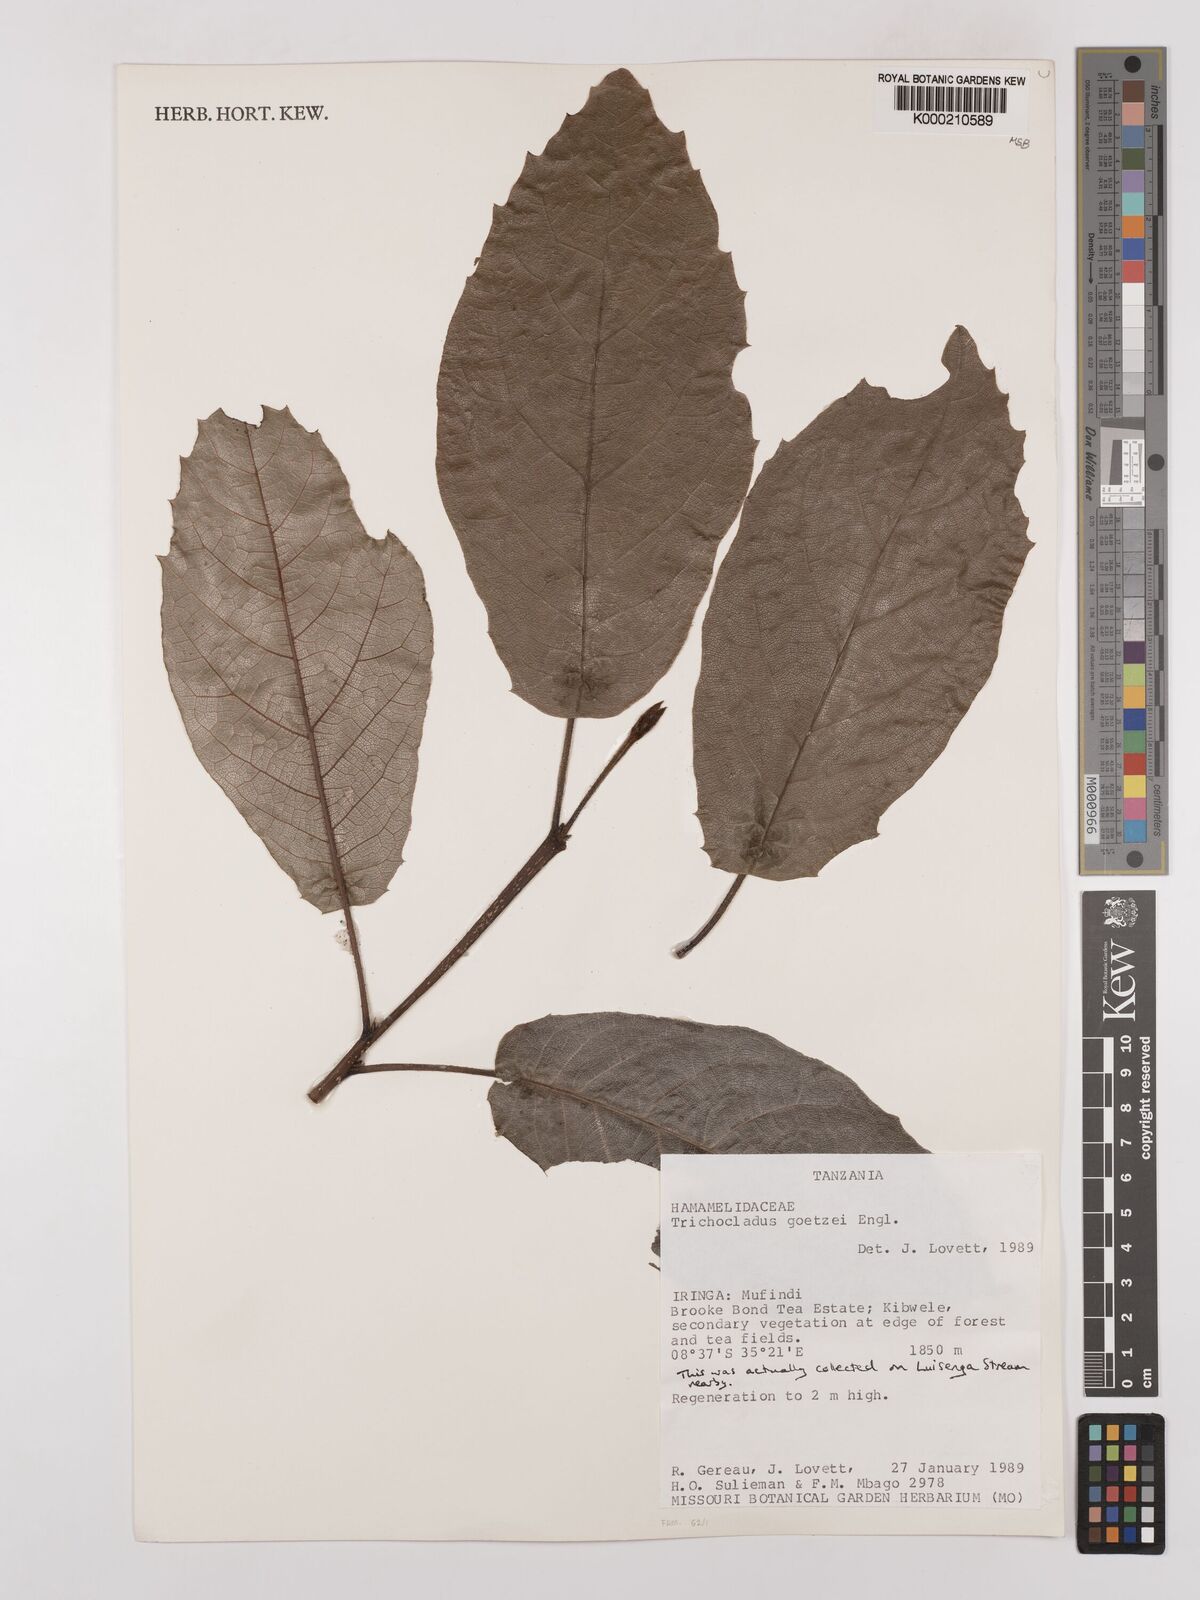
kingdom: Plantae
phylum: Tracheophyta
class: Magnoliopsida
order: Saxifragales
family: Hamamelidaceae
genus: Trichocladus
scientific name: Trichocladus goetzei
